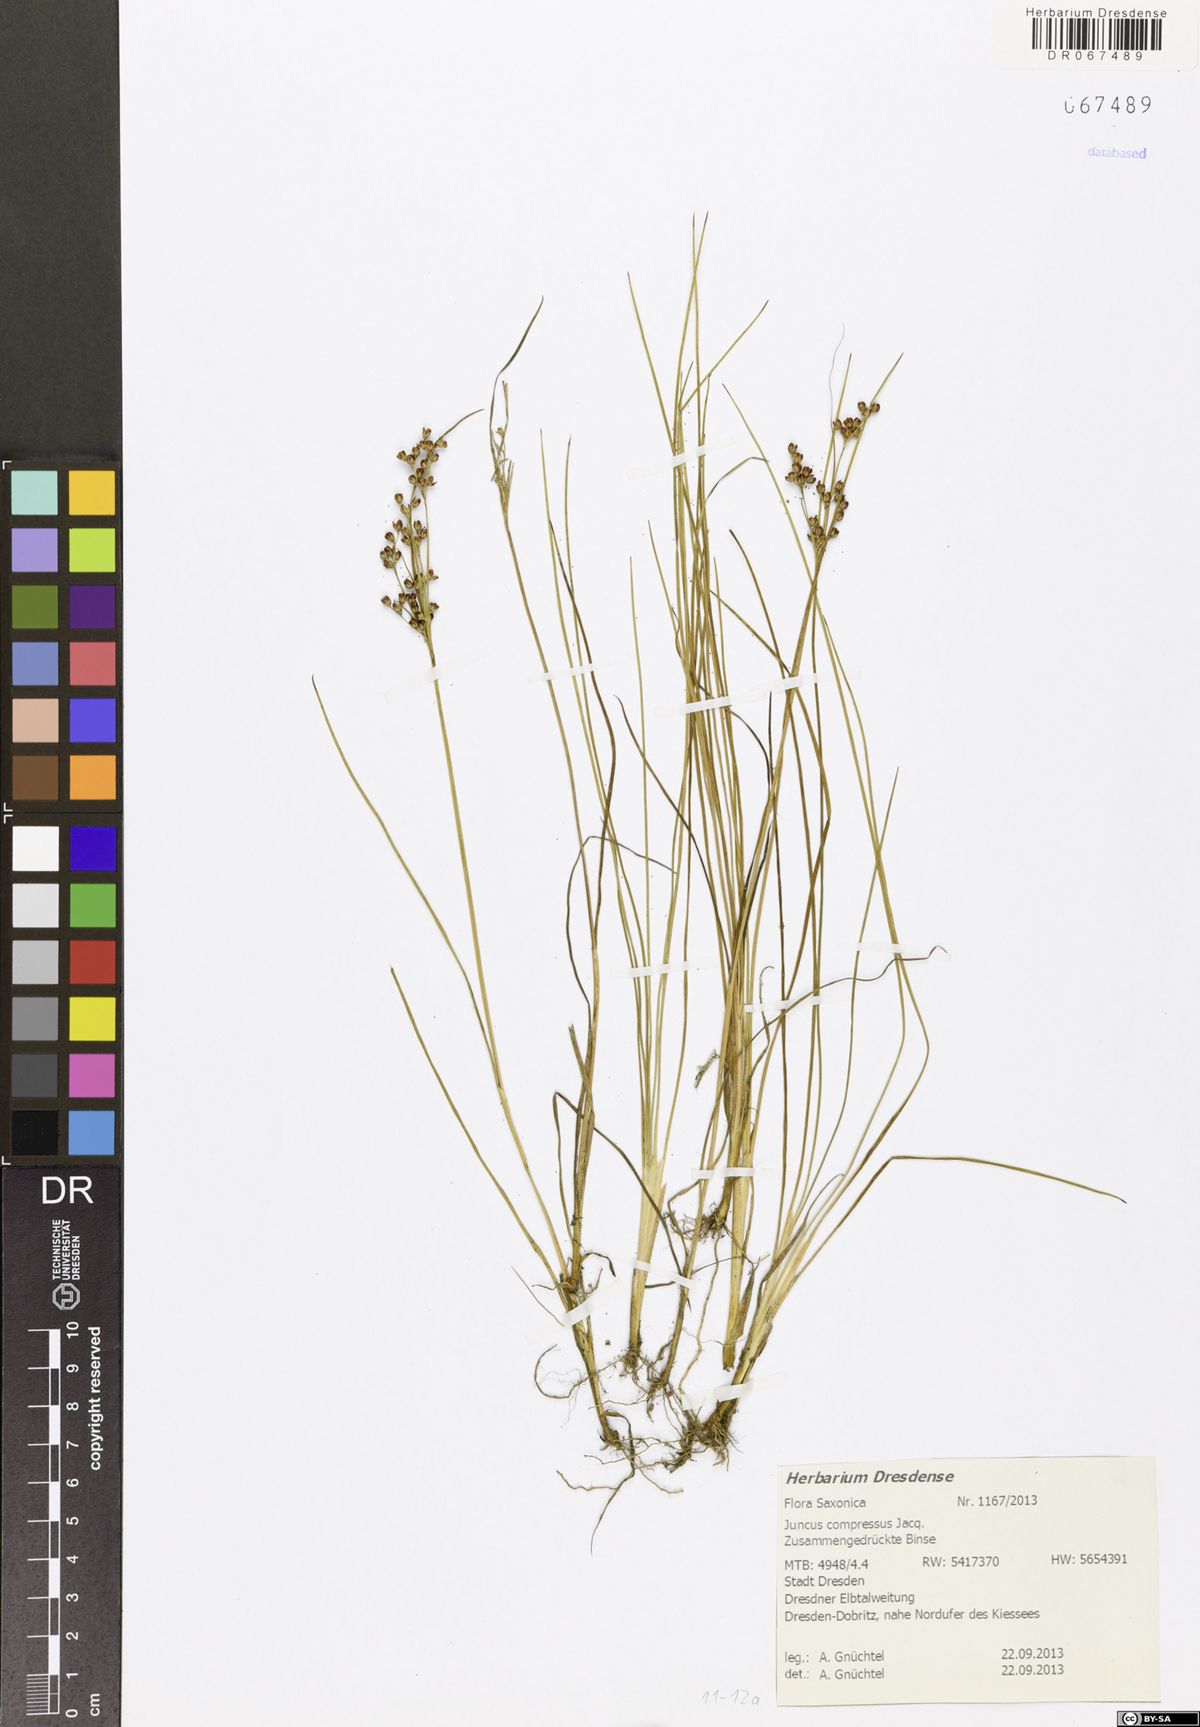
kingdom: Plantae
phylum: Tracheophyta
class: Liliopsida
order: Poales
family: Juncaceae
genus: Juncus
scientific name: Juncus compressus
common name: Round-fruited rush
